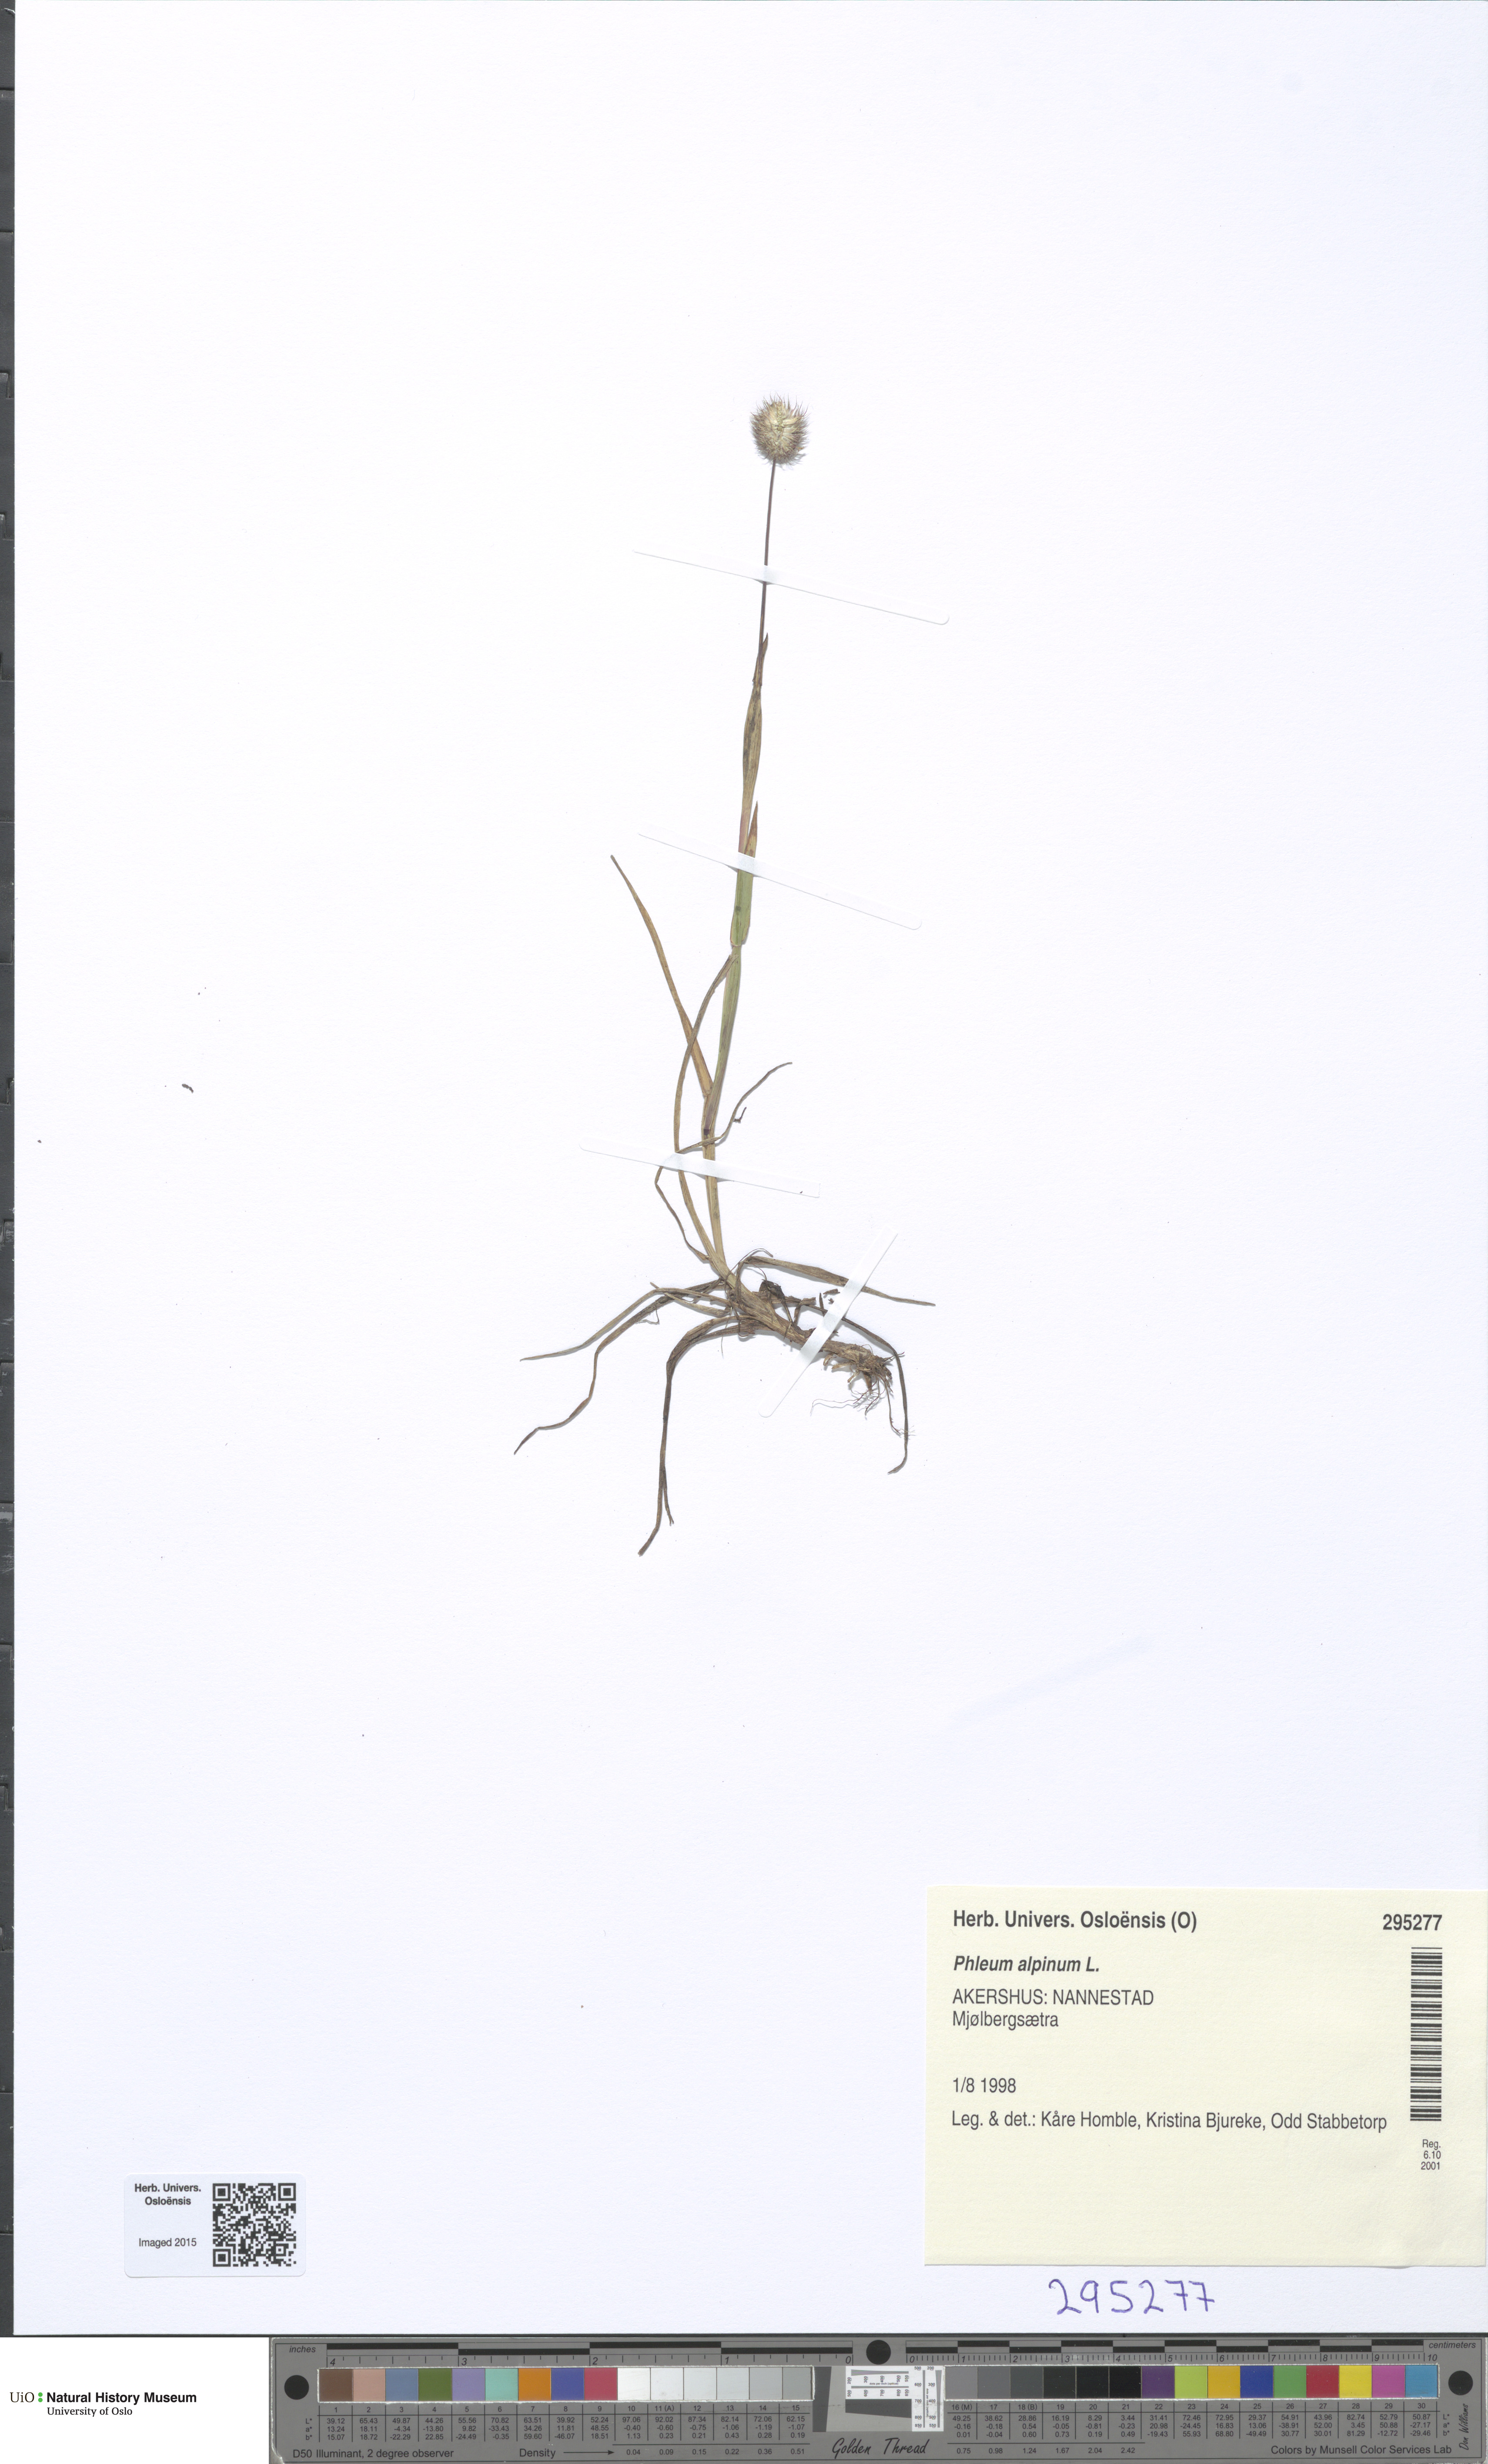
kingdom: Plantae
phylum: Tracheophyta
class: Liliopsida
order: Poales
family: Poaceae
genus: Phleum
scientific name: Phleum alpinum
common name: Alpine cat's-tail
